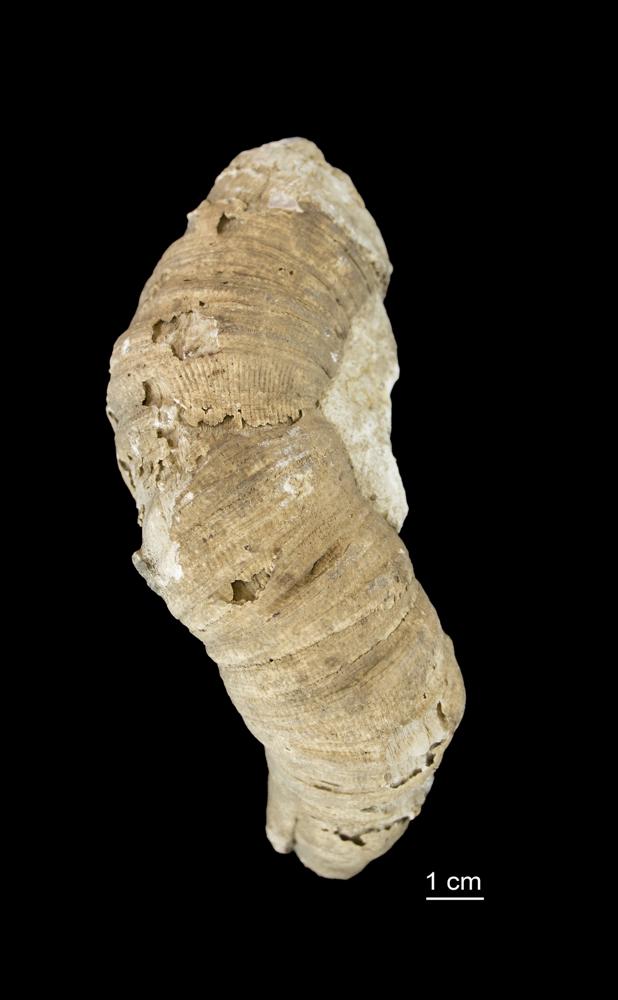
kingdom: Animalia
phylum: Cnidaria
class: Anthozoa
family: Cyathophyllidae
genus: Cyathophyllum
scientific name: Cyathophyllum
